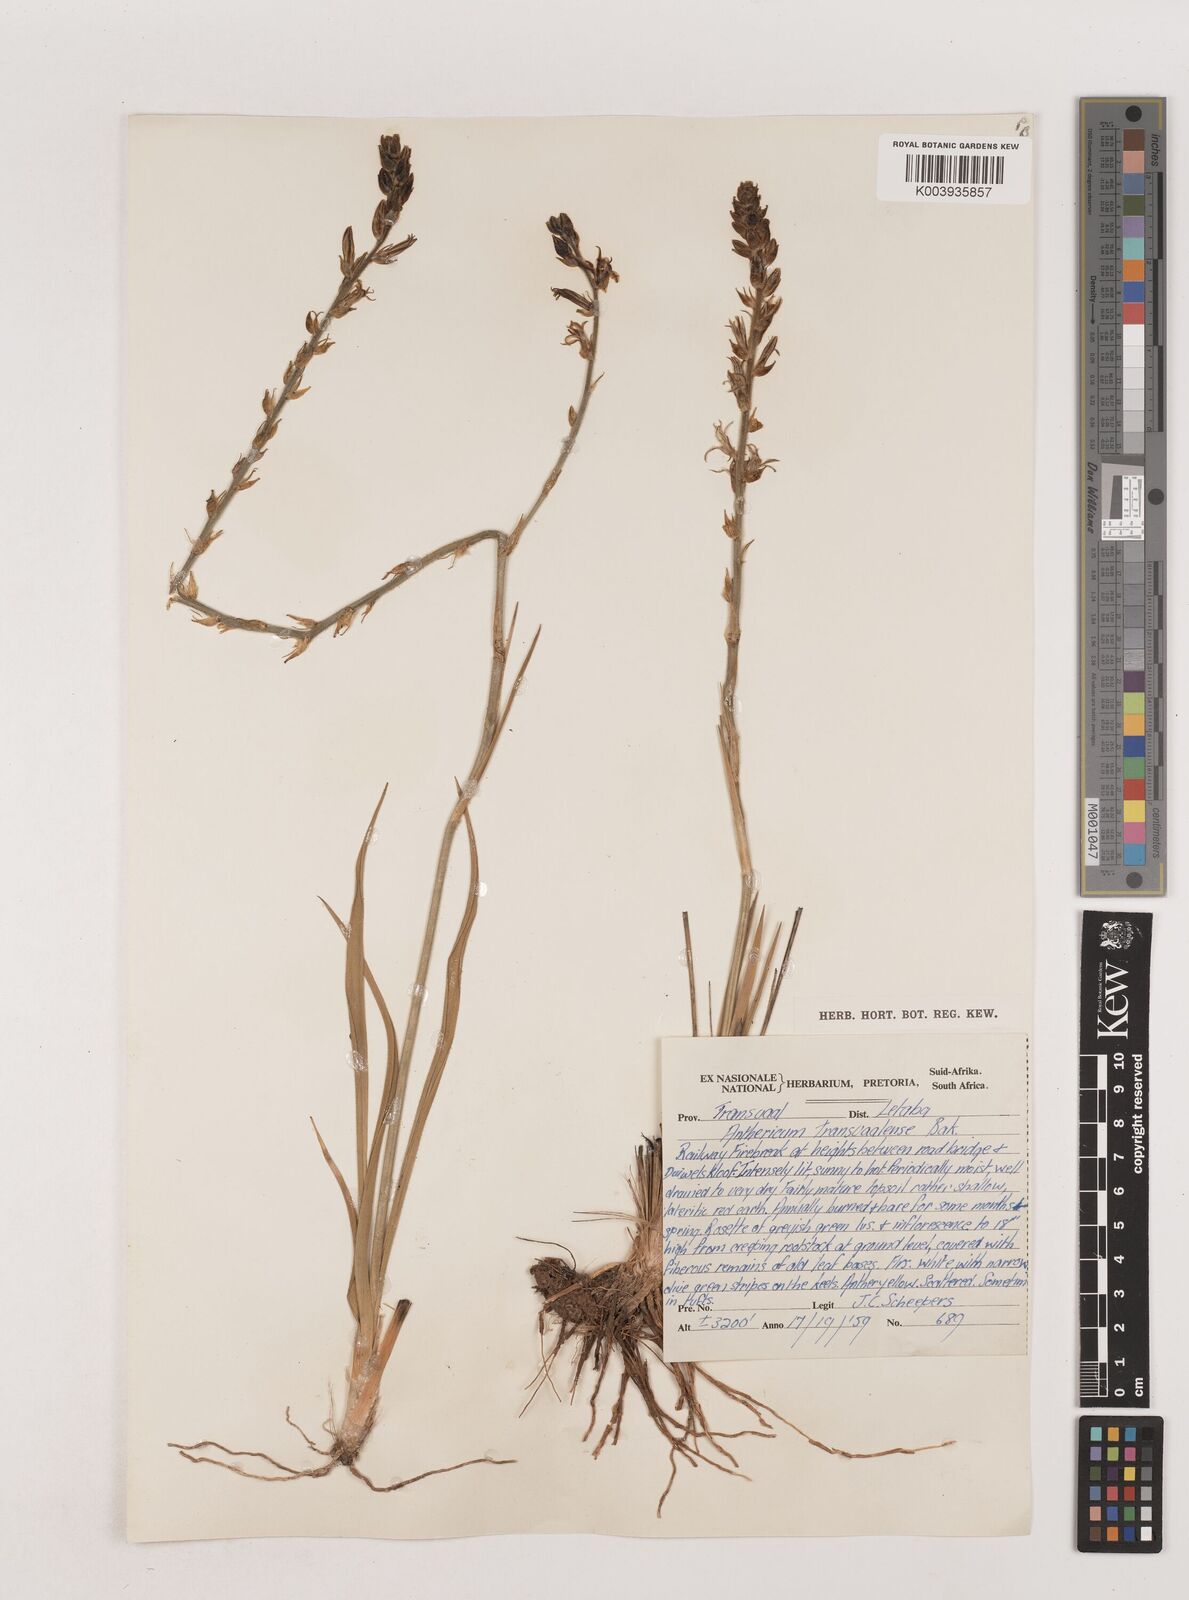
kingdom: Plantae
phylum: Tracheophyta
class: Liliopsida
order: Asparagales
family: Asparagaceae
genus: Chlorophytum
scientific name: Chlorophytum transvaalense
